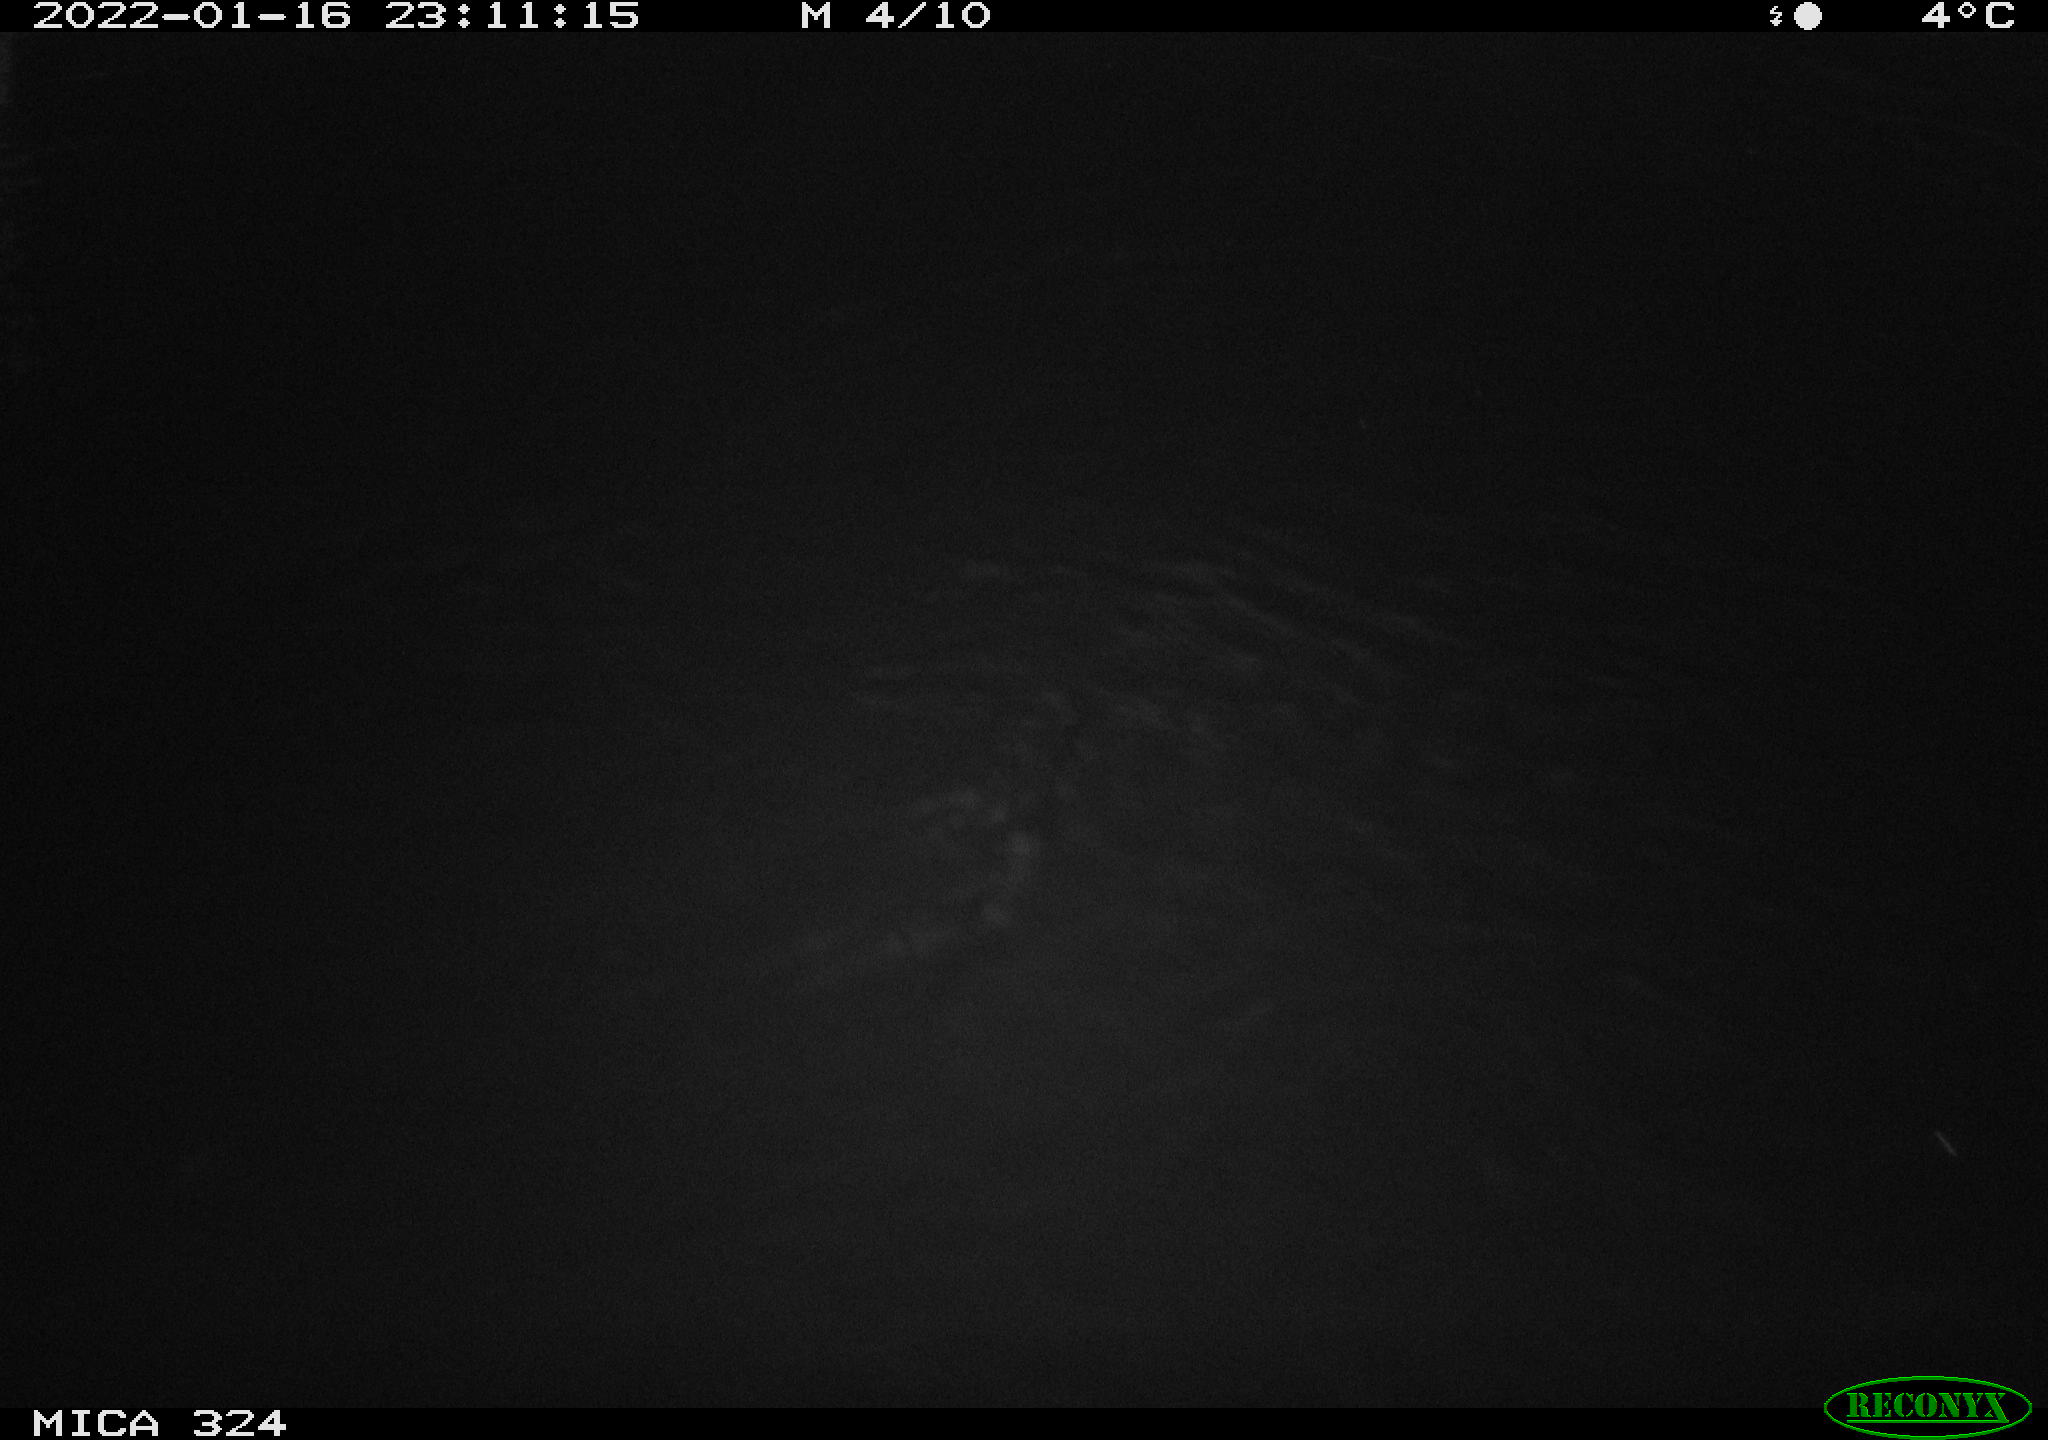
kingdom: Animalia
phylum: Chordata
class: Mammalia
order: Rodentia
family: Cricetidae
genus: Ondatra
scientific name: Ondatra zibethicus
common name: Muskrat
